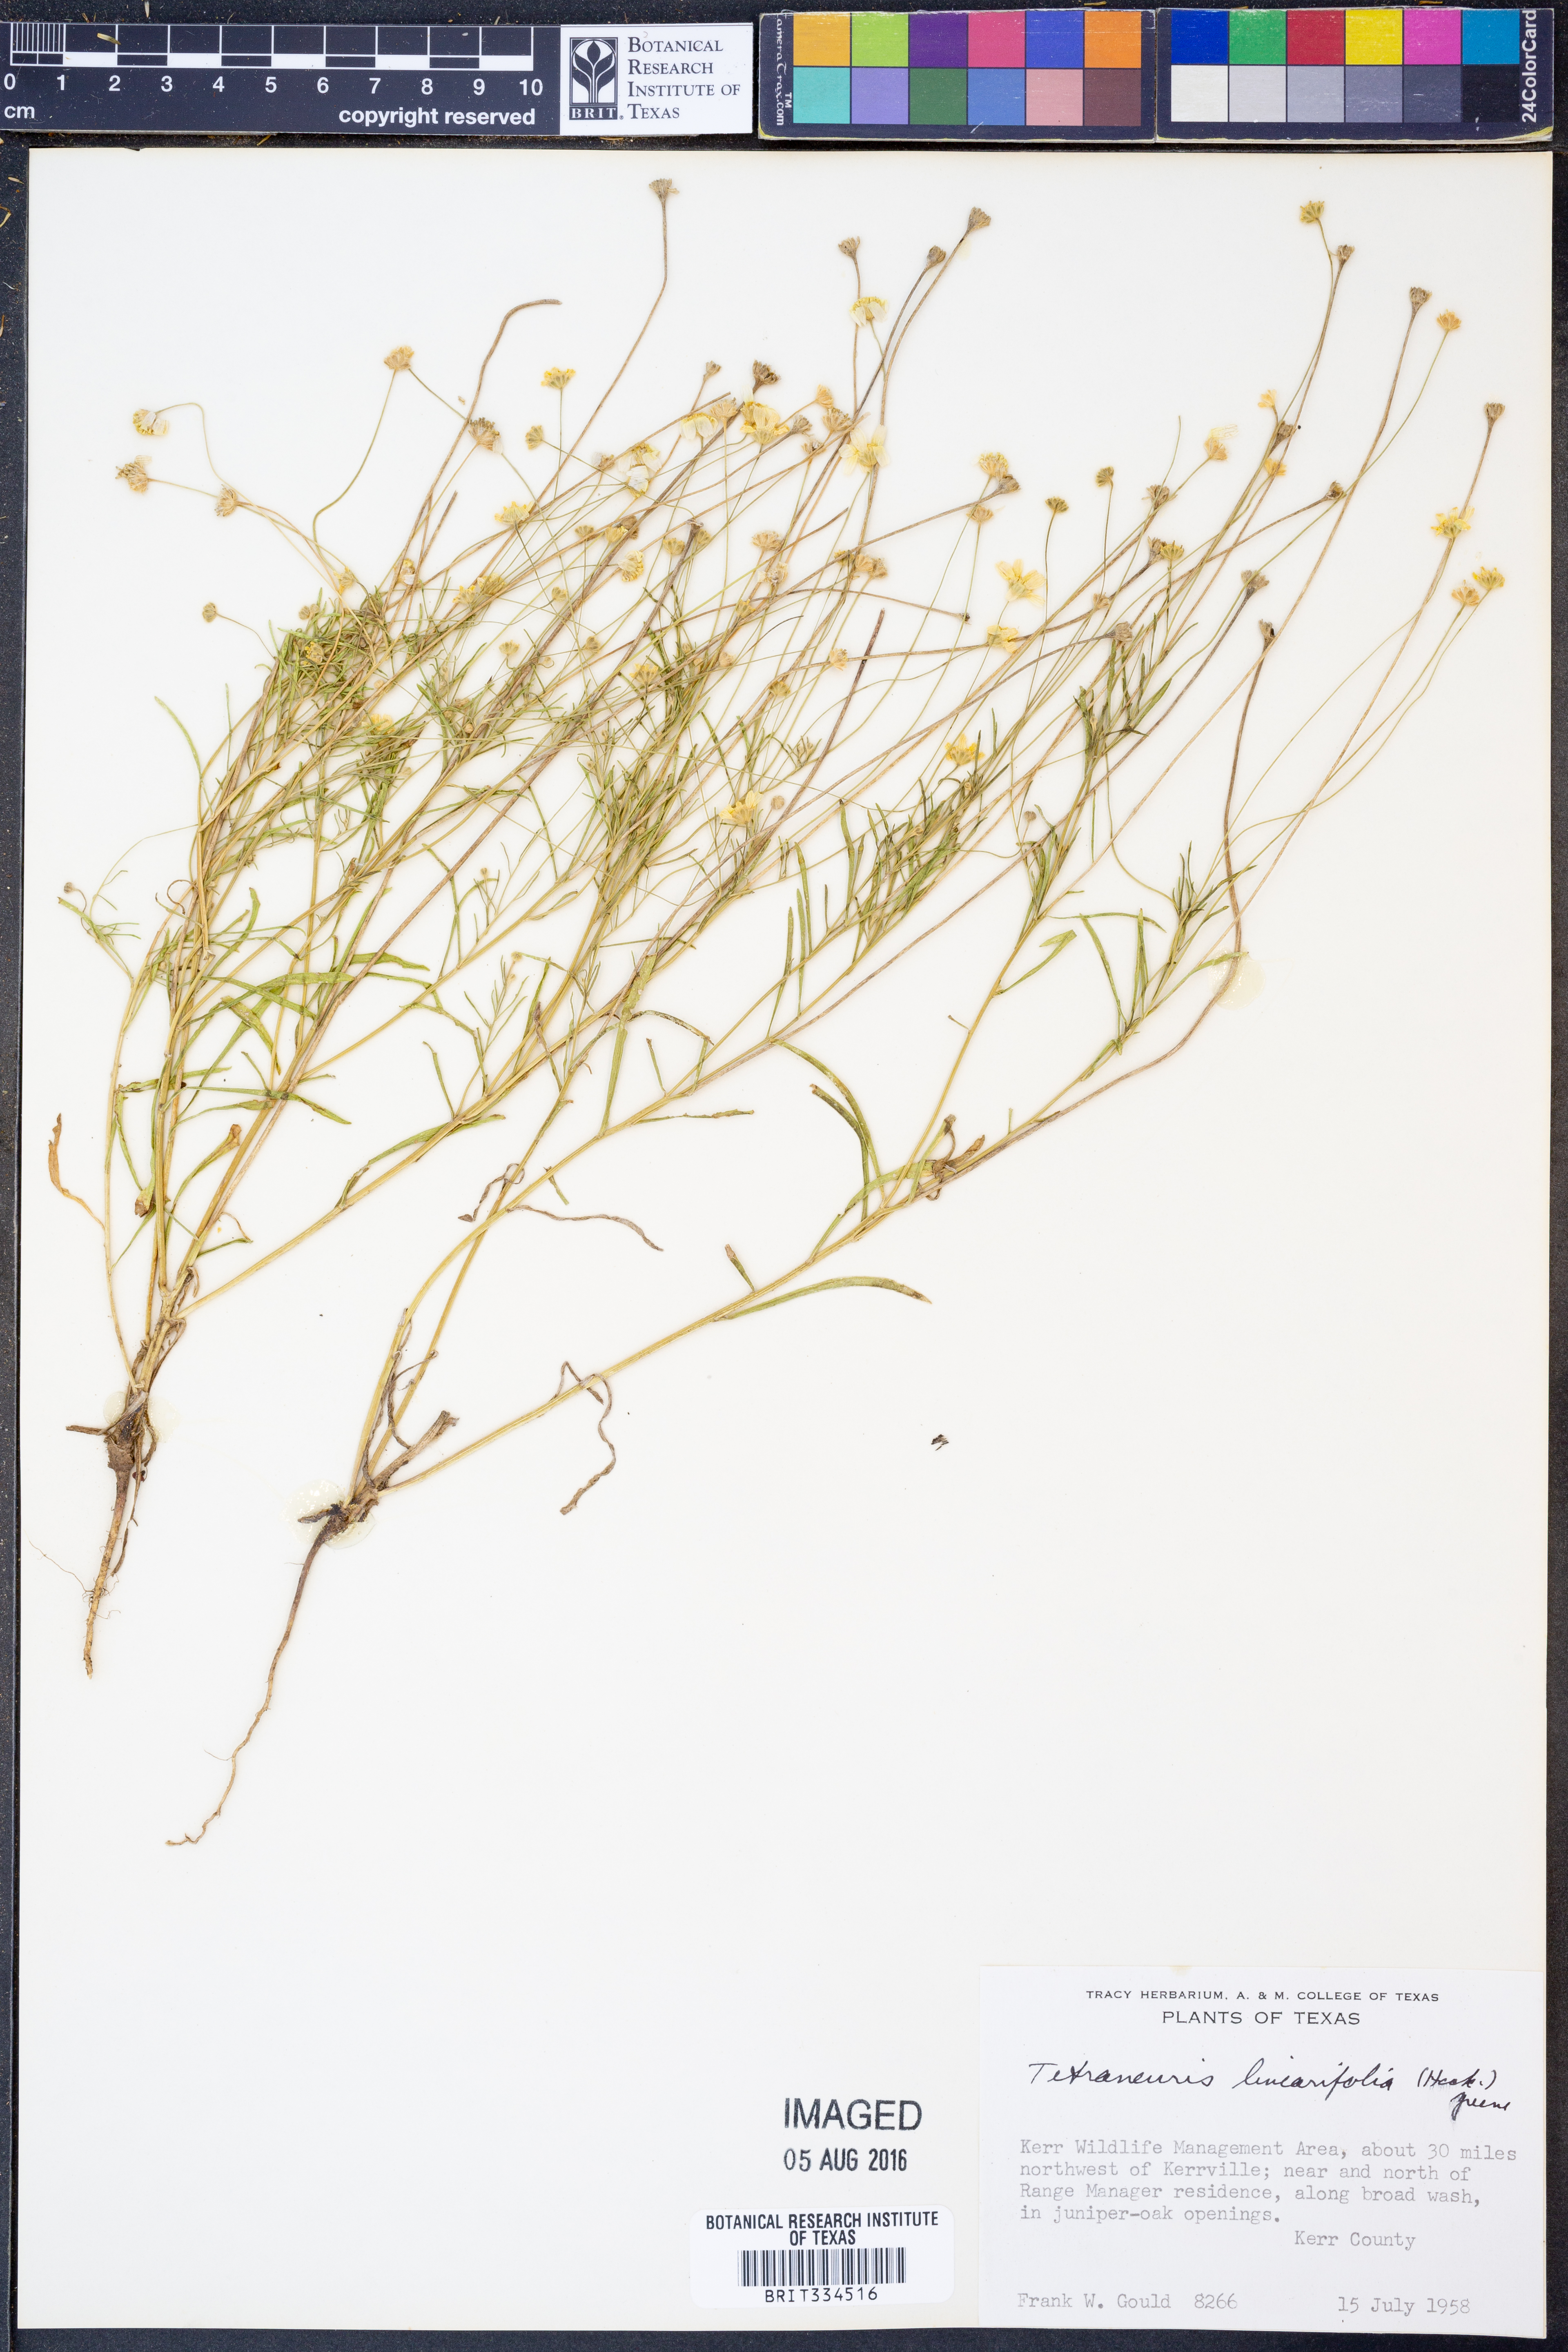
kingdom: Plantae
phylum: Tracheophyta
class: Magnoliopsida
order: Asterales
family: Asteraceae
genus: Tetraneuris
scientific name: Tetraneuris linearifolia
